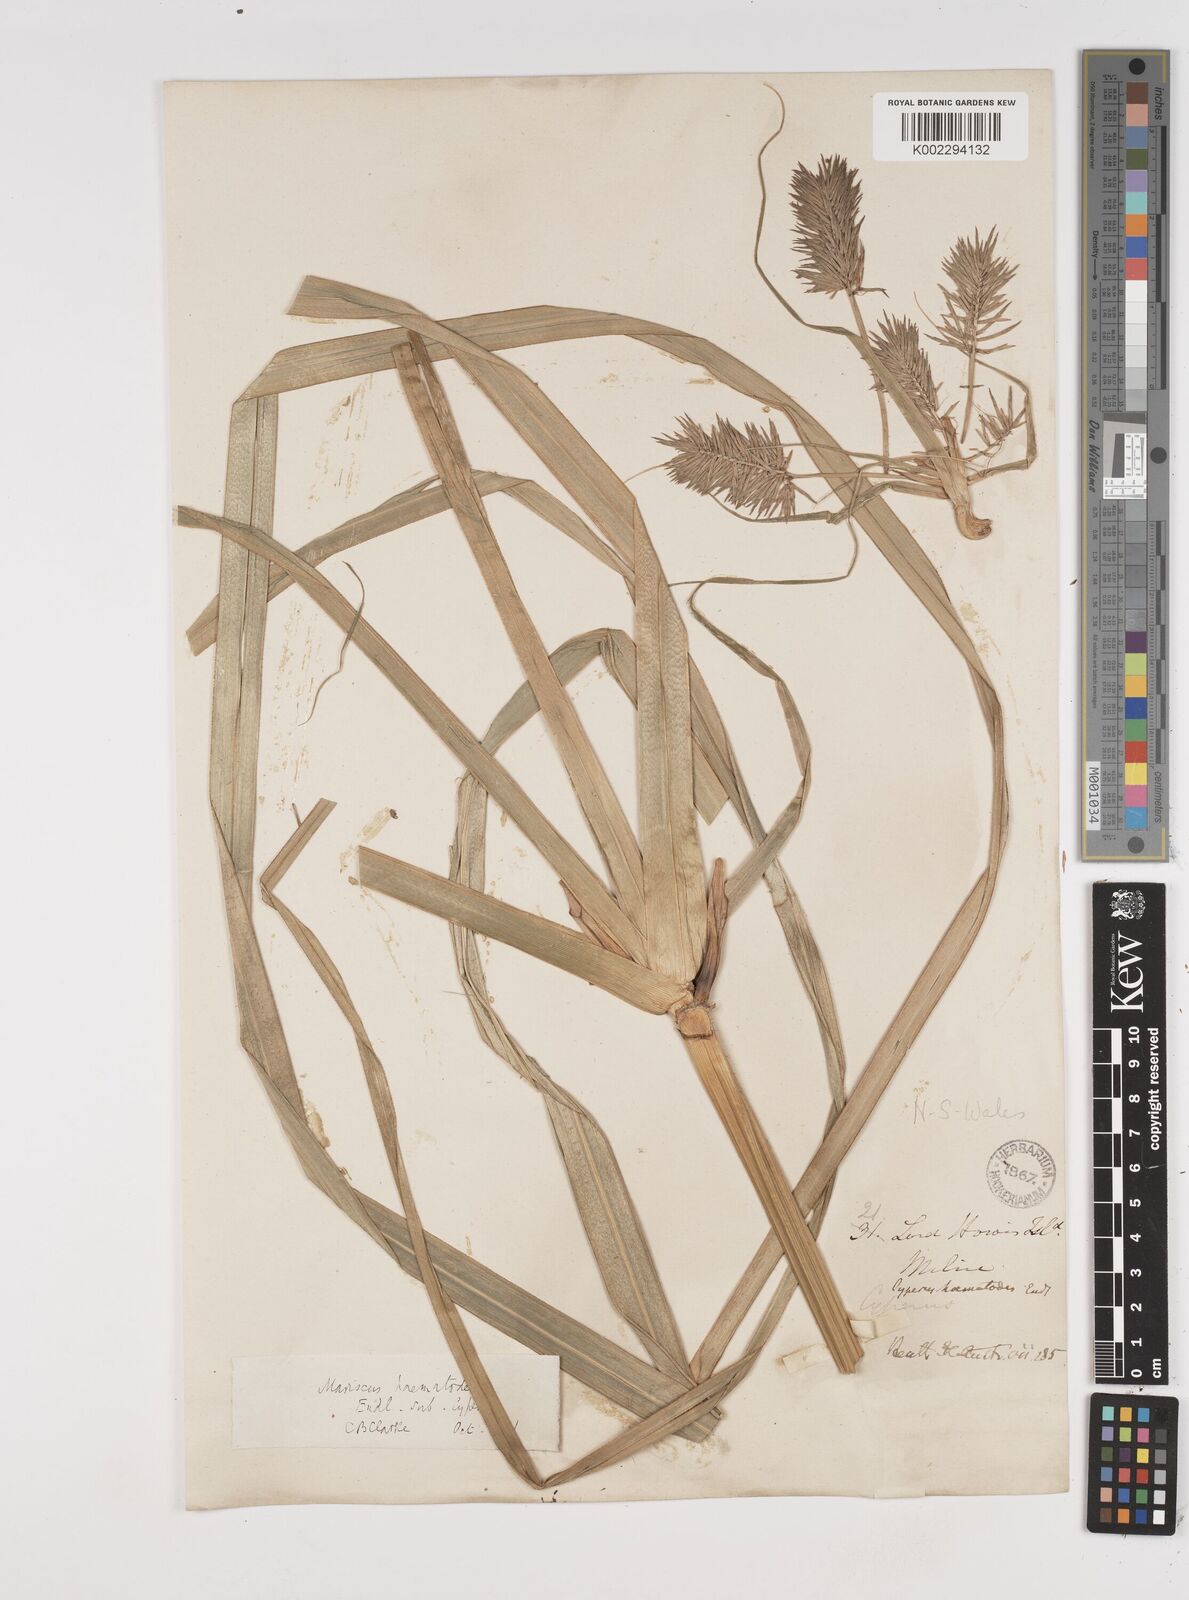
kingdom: Plantae
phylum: Tracheophyta
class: Liliopsida
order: Poales
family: Cyperaceae
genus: Cyperus
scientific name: Cyperus lucidus
